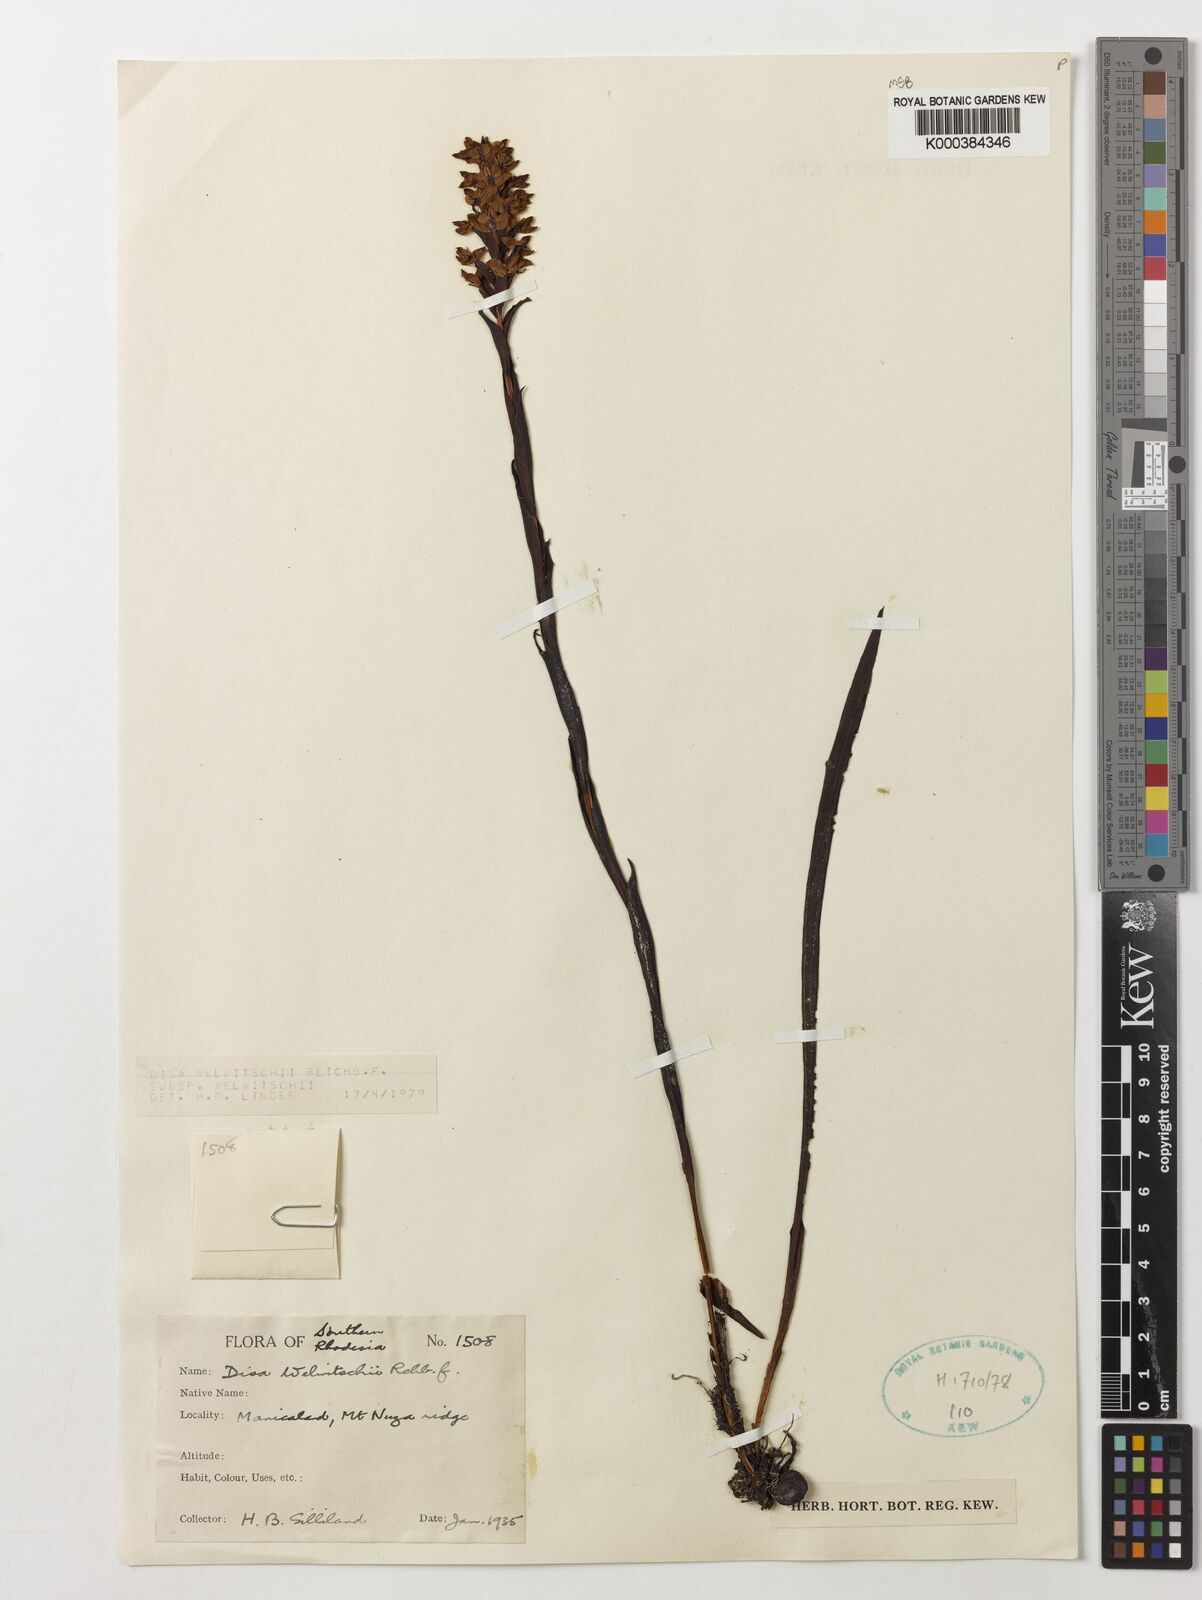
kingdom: Plantae
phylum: Tracheophyta
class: Liliopsida
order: Asparagales
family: Orchidaceae
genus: Disa
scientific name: Disa welwitschii
